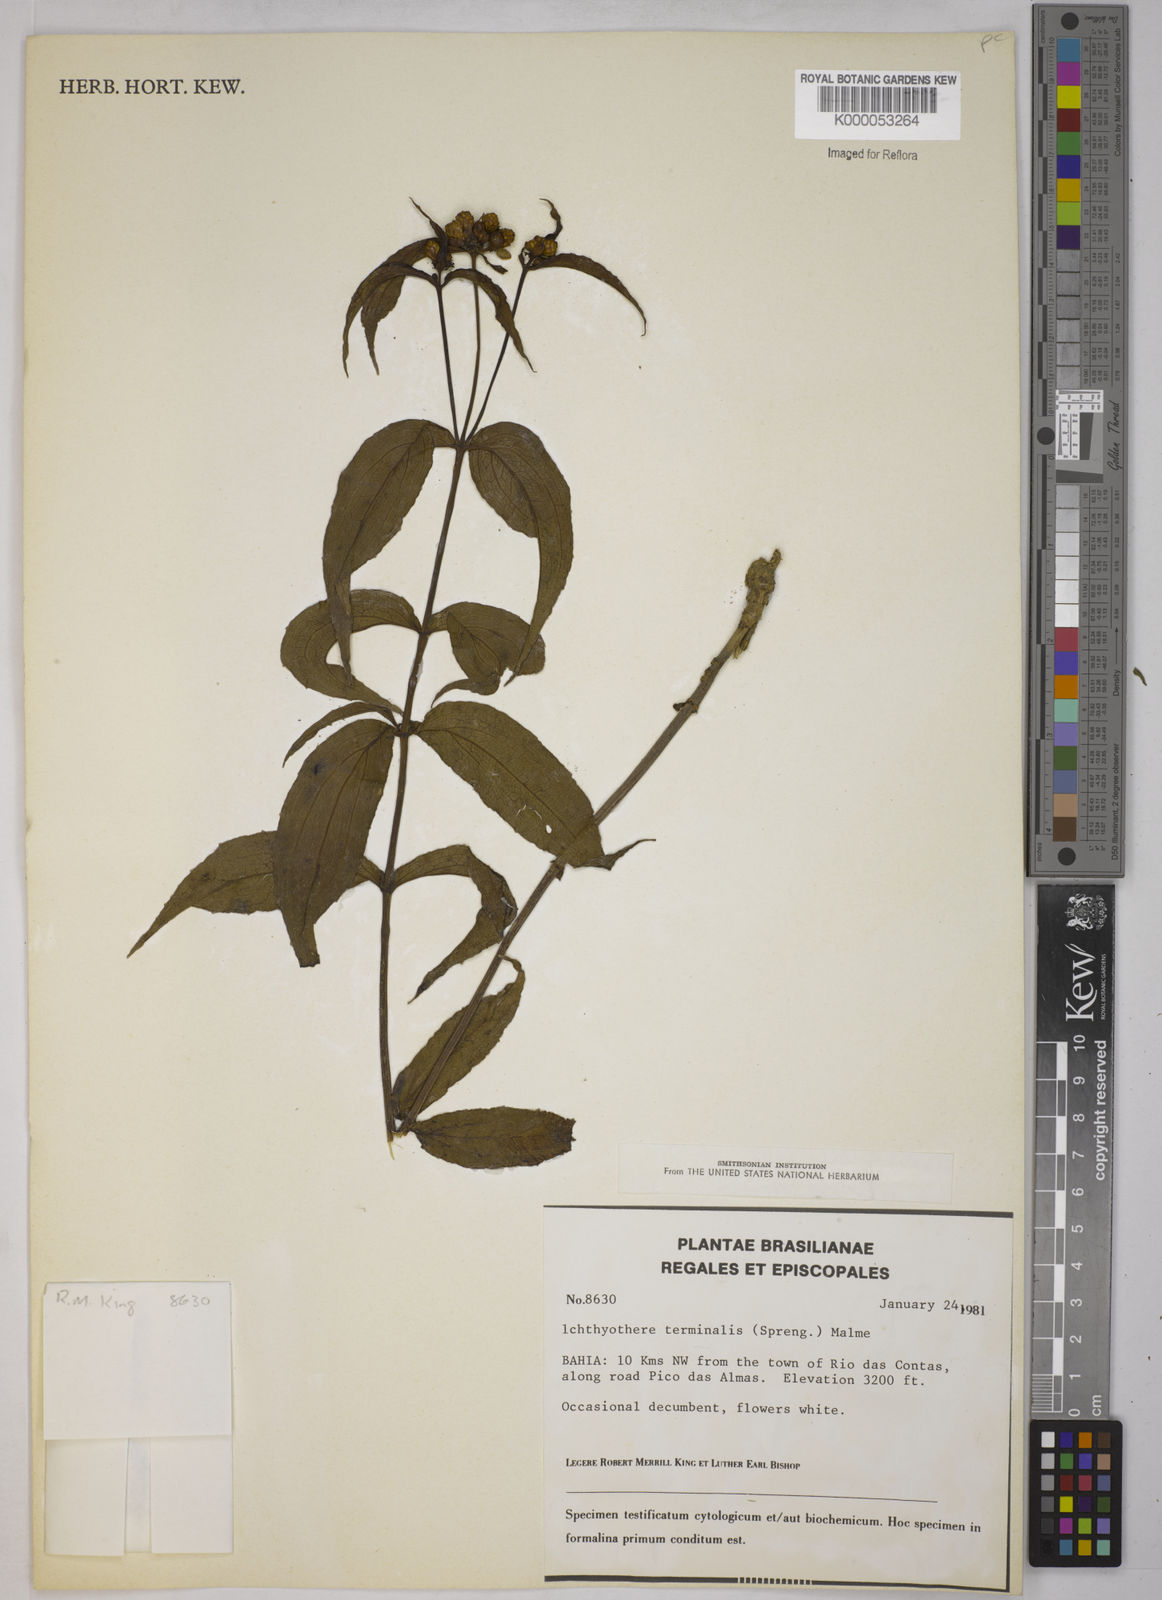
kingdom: Plantae
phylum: Tracheophyta
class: Magnoliopsida
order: Asterales
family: Asteraceae
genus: Ichthyothere
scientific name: Ichthyothere terminalis
